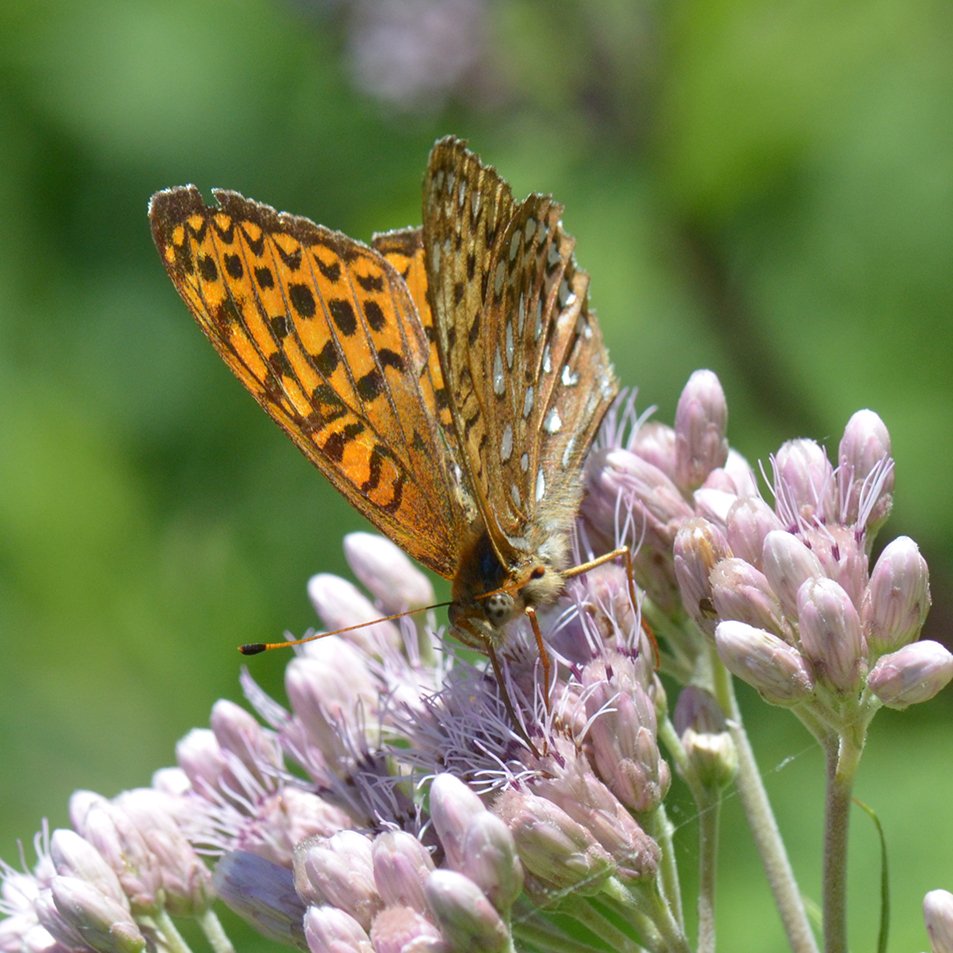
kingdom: Animalia
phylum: Arthropoda
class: Insecta
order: Lepidoptera
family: Nymphalidae
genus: Speyeria
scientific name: Speyeria atlantis
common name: Atlantis Fritillary
